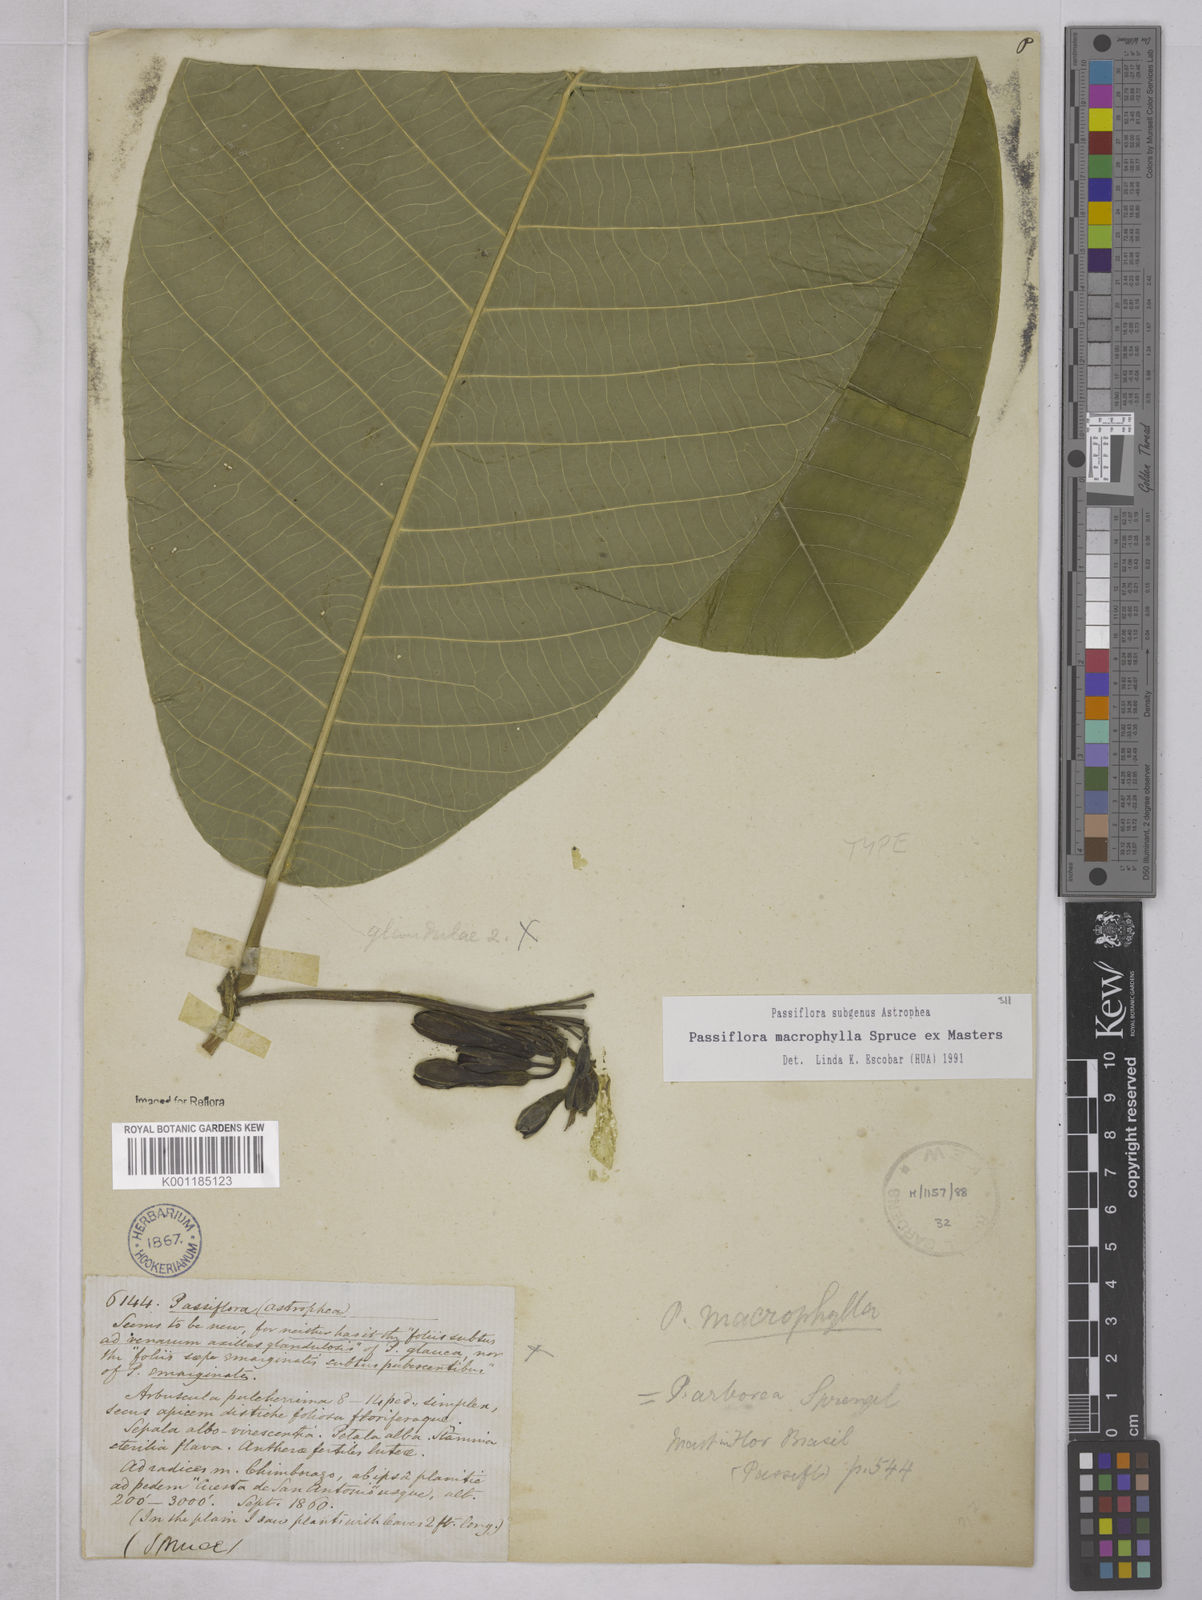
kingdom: Plantae
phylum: Tracheophyta
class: Magnoliopsida
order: Malpighiales
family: Passifloraceae
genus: Passiflora
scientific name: Passiflora macrophylla
